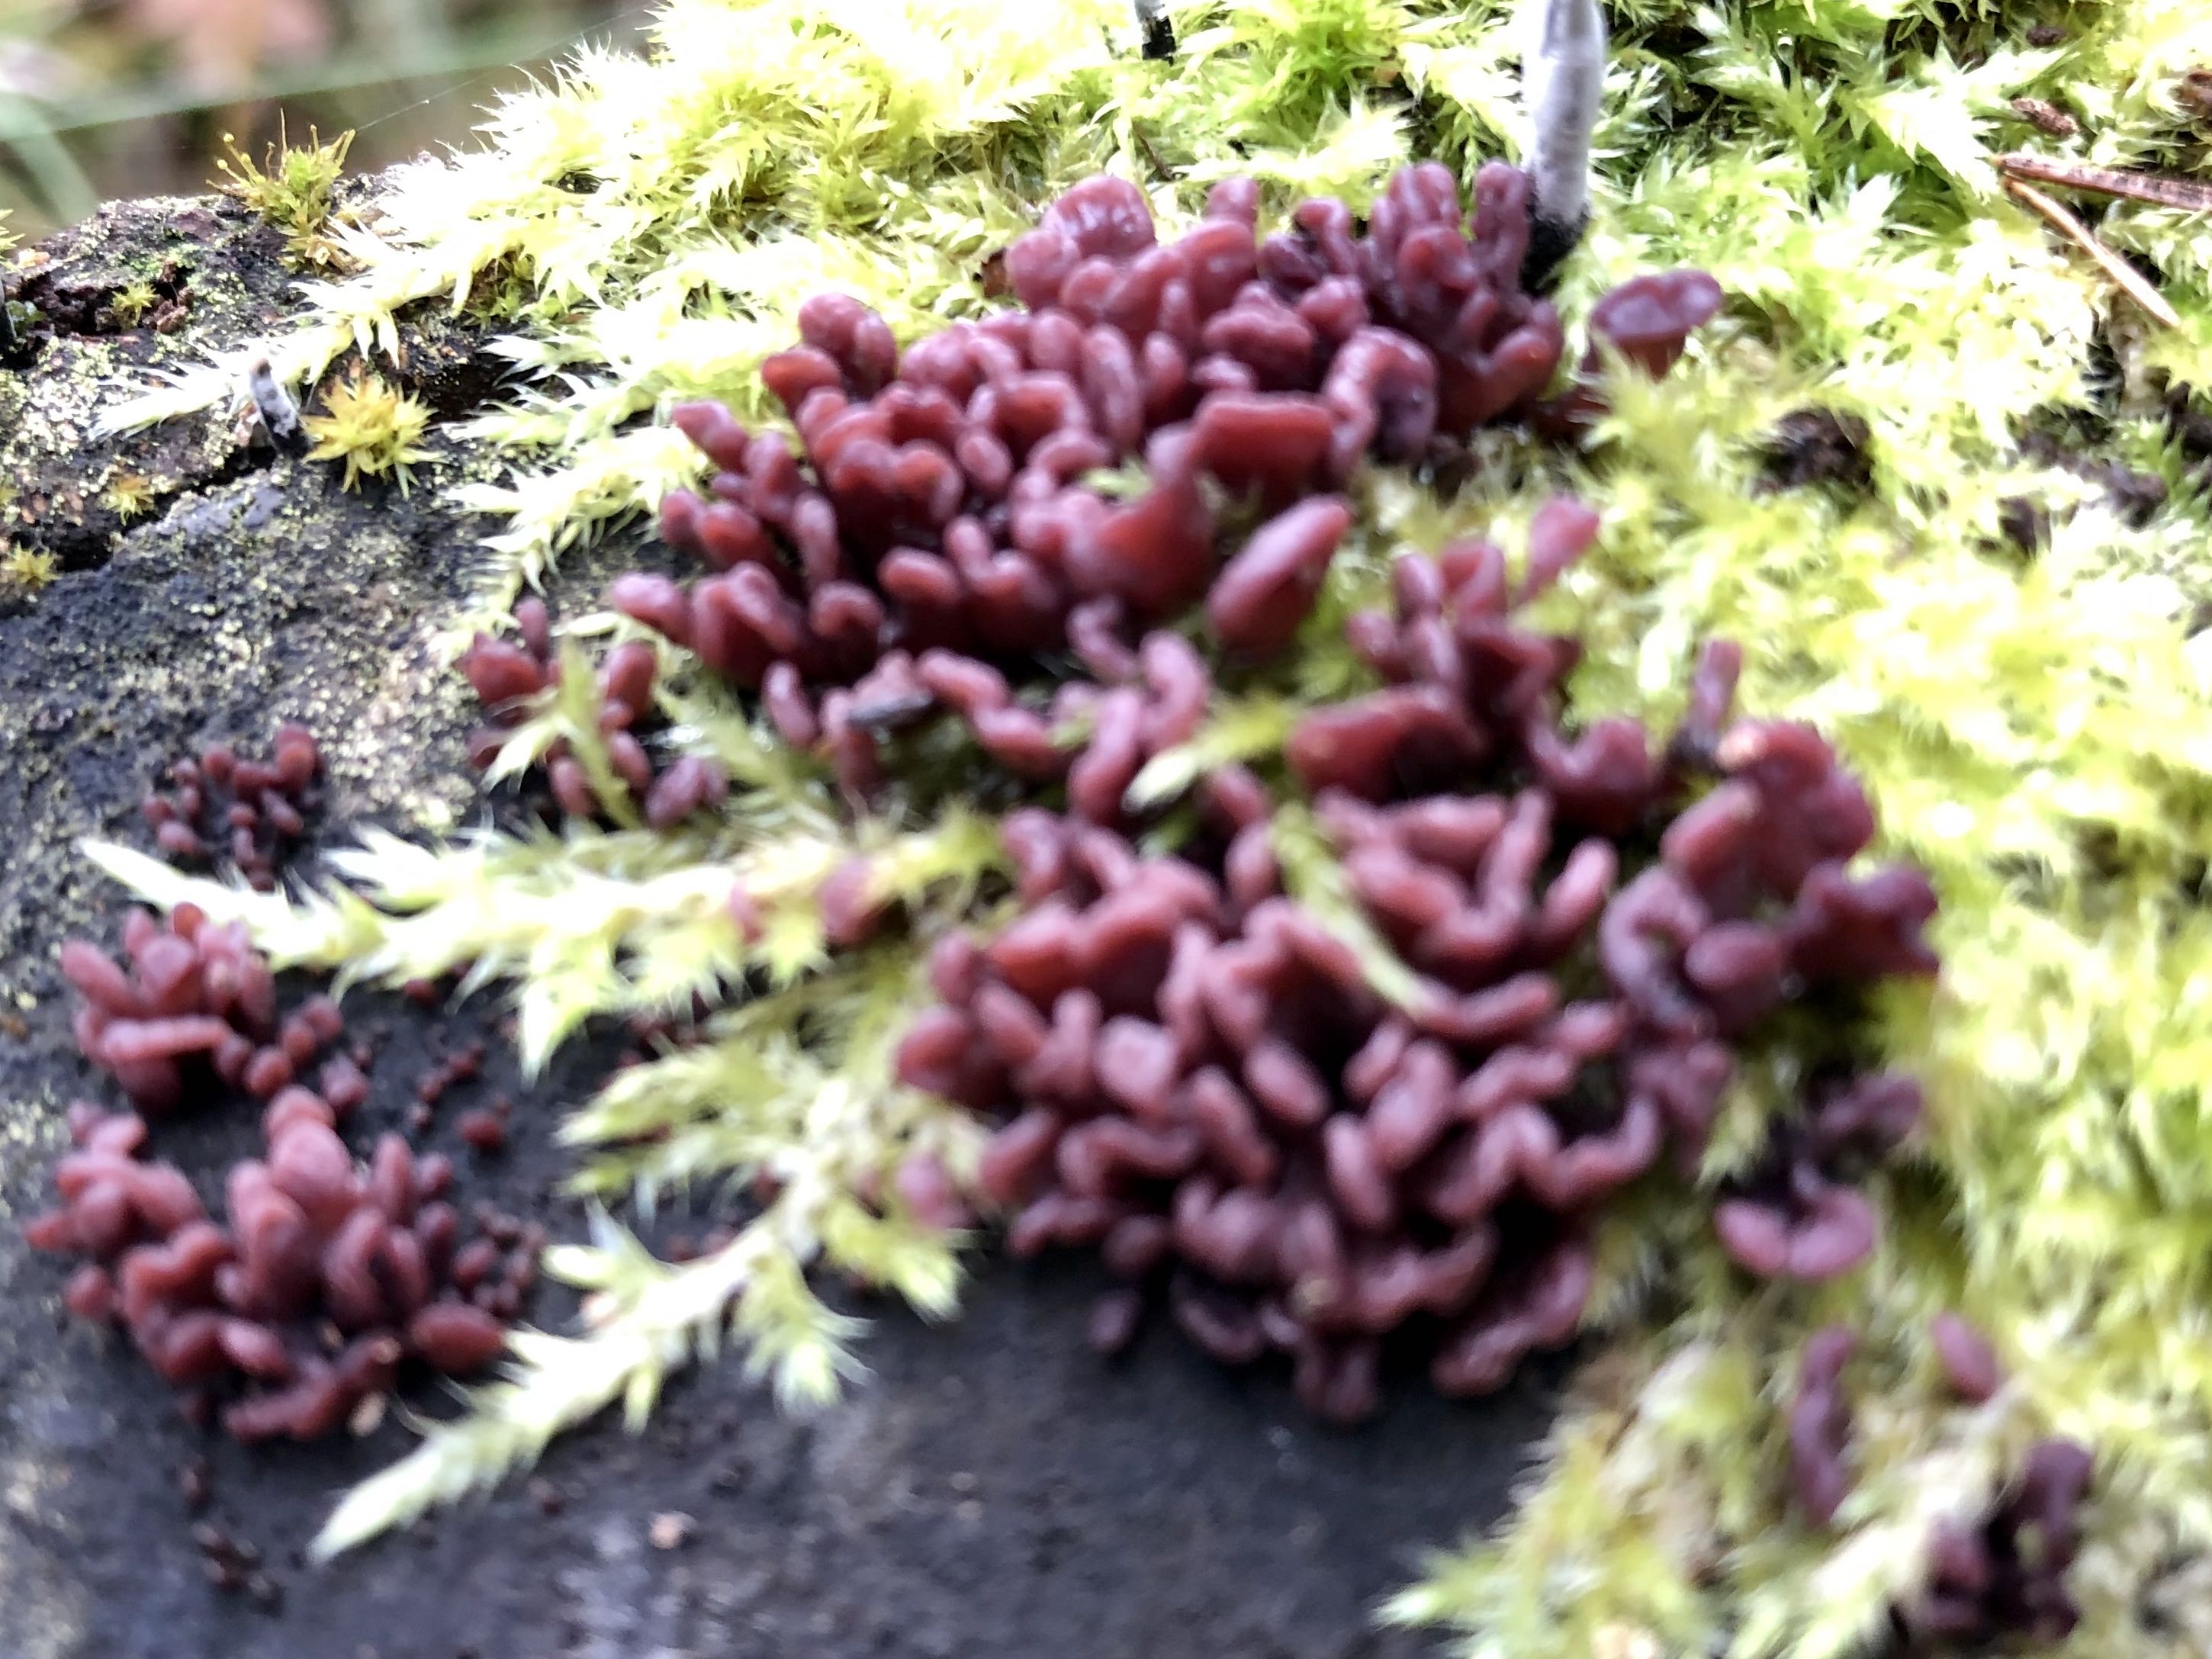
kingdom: Fungi
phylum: Ascomycota
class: Leotiomycetes
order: Helotiales
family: Gelatinodiscaceae
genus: Ascocoryne
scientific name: Ascocoryne sarcoides
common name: rødlilla sejskive
